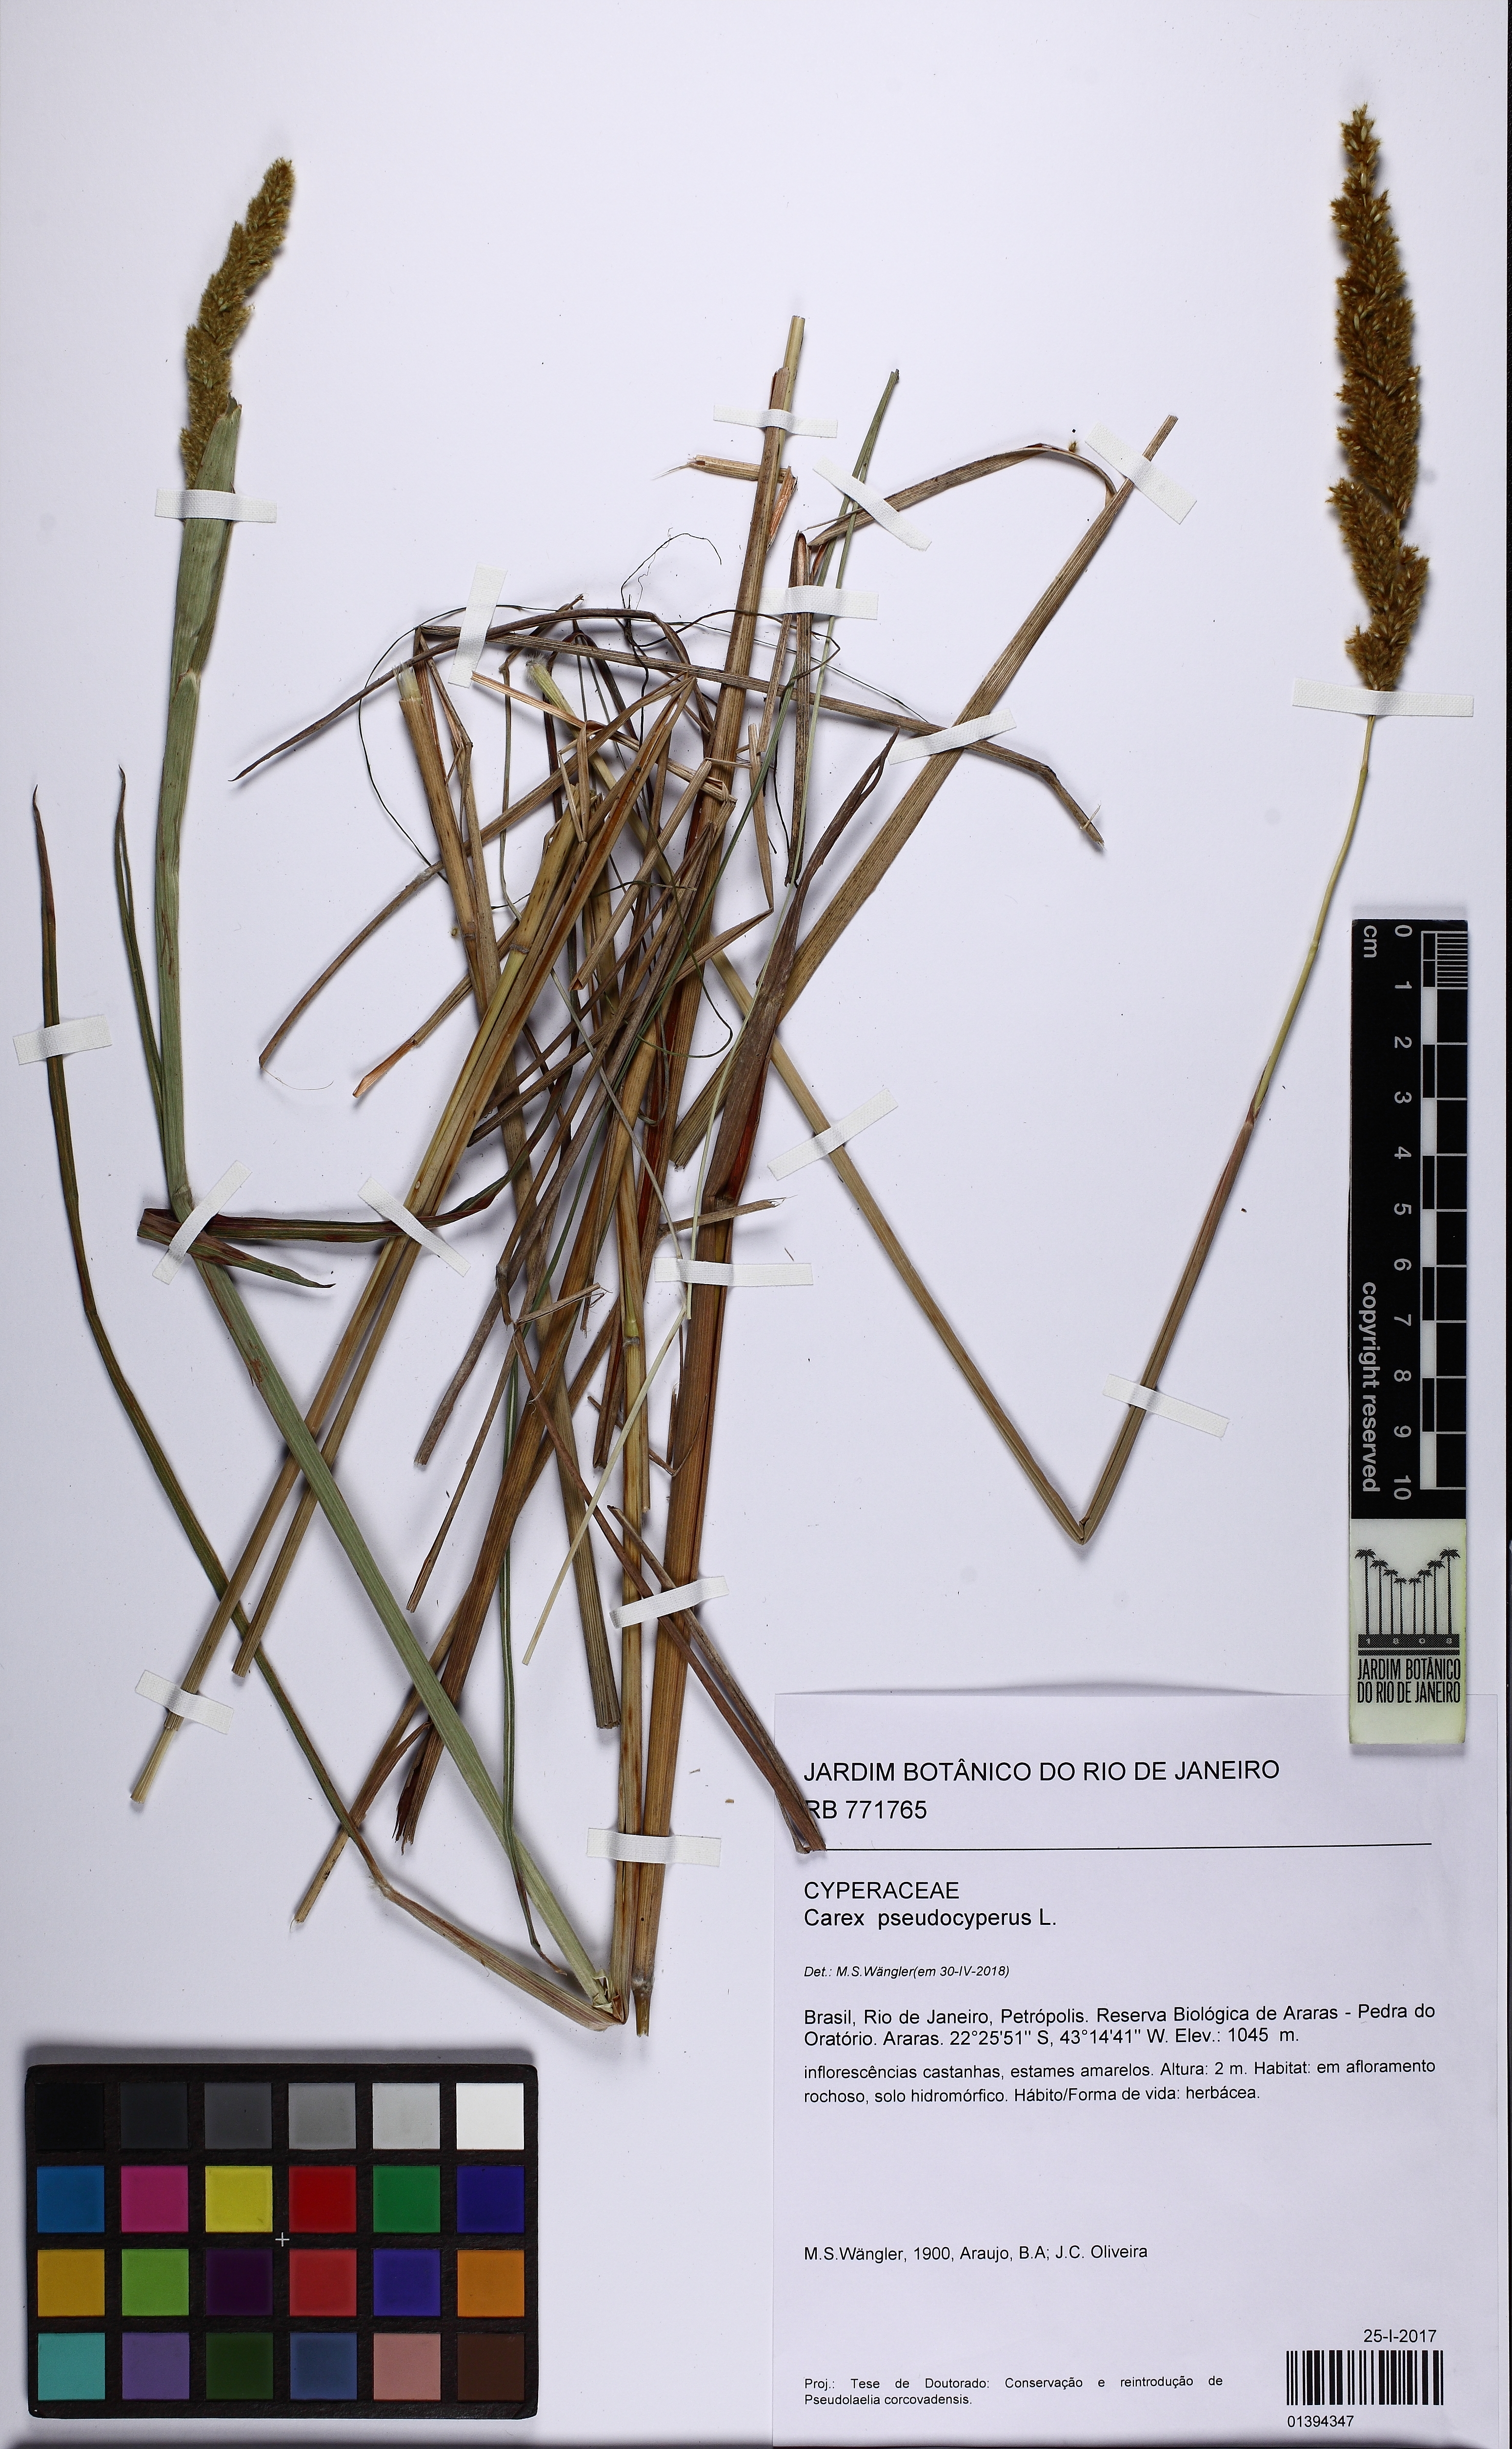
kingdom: Plantae
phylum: Tracheophyta
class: Liliopsida
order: Poales
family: Cyperaceae
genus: Carex
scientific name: Carex pseudocyperus
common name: Cyperus sedge
